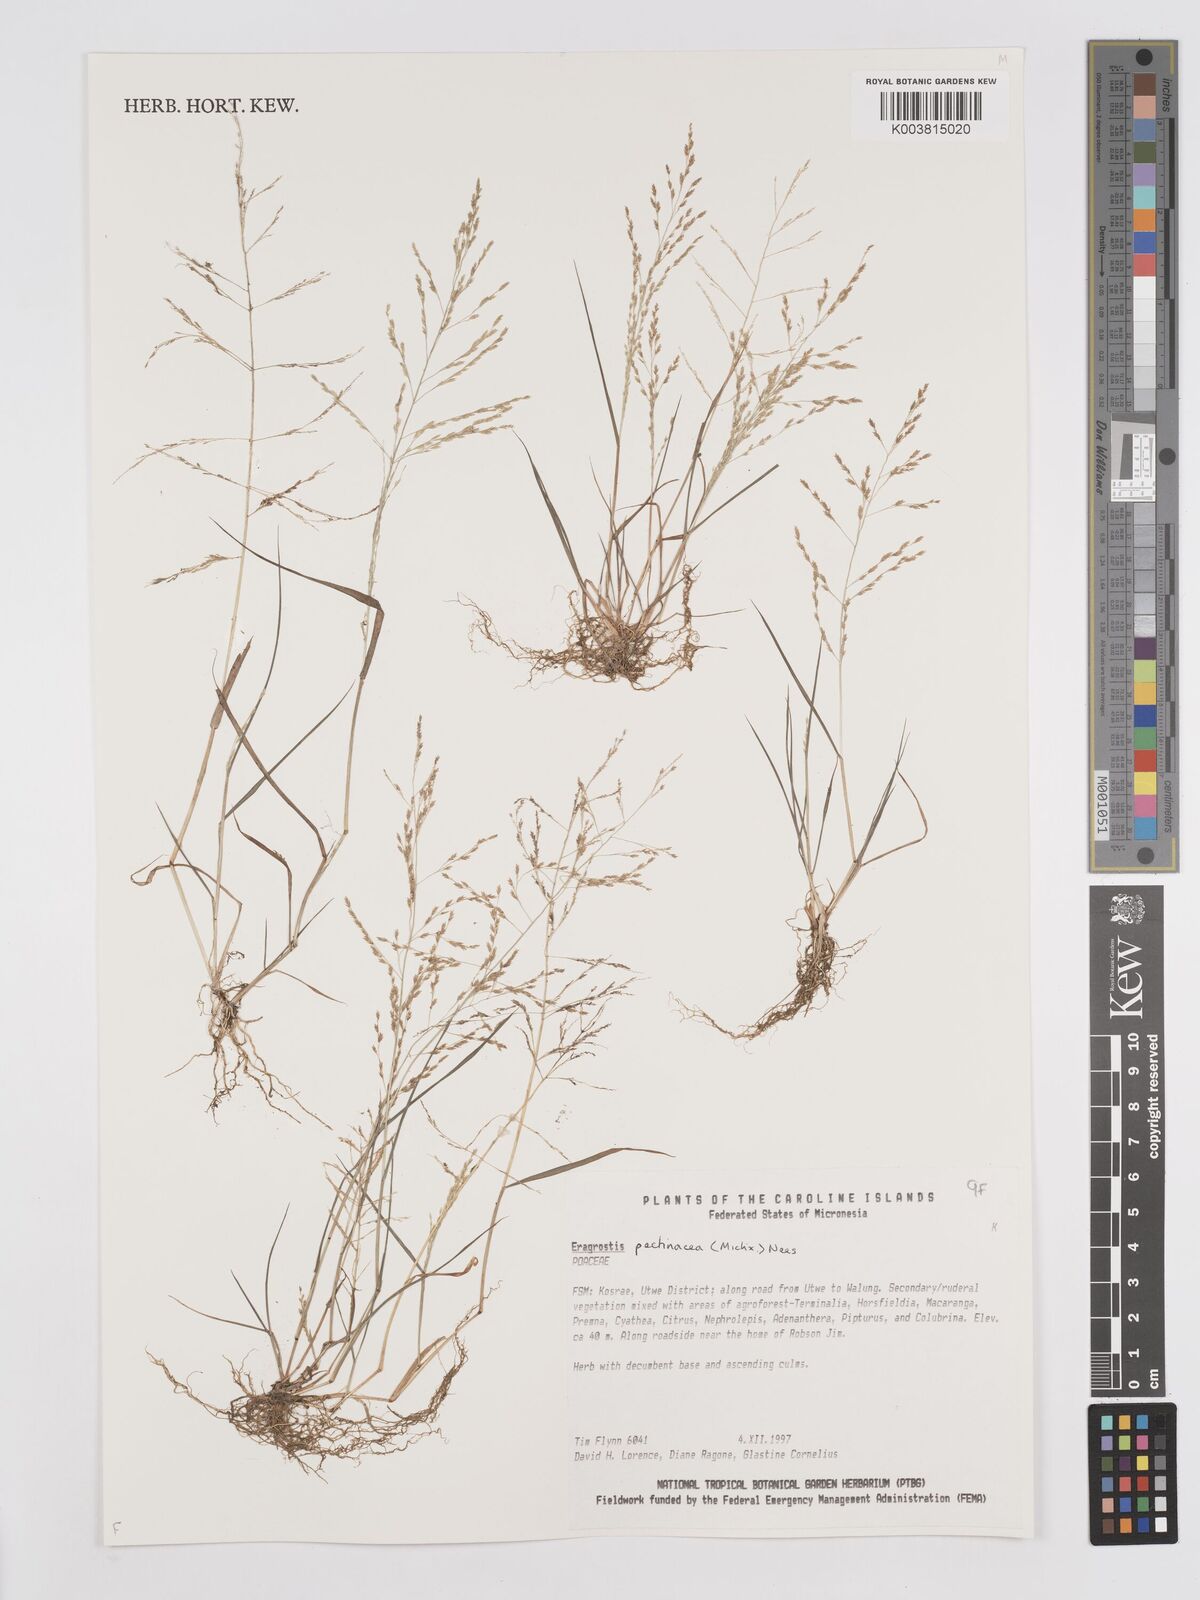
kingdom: Plantae
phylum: Tracheophyta
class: Liliopsida
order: Poales
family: Poaceae
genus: Eragrostis
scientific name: Eragrostis pectinacea
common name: Tufted lovegrass
